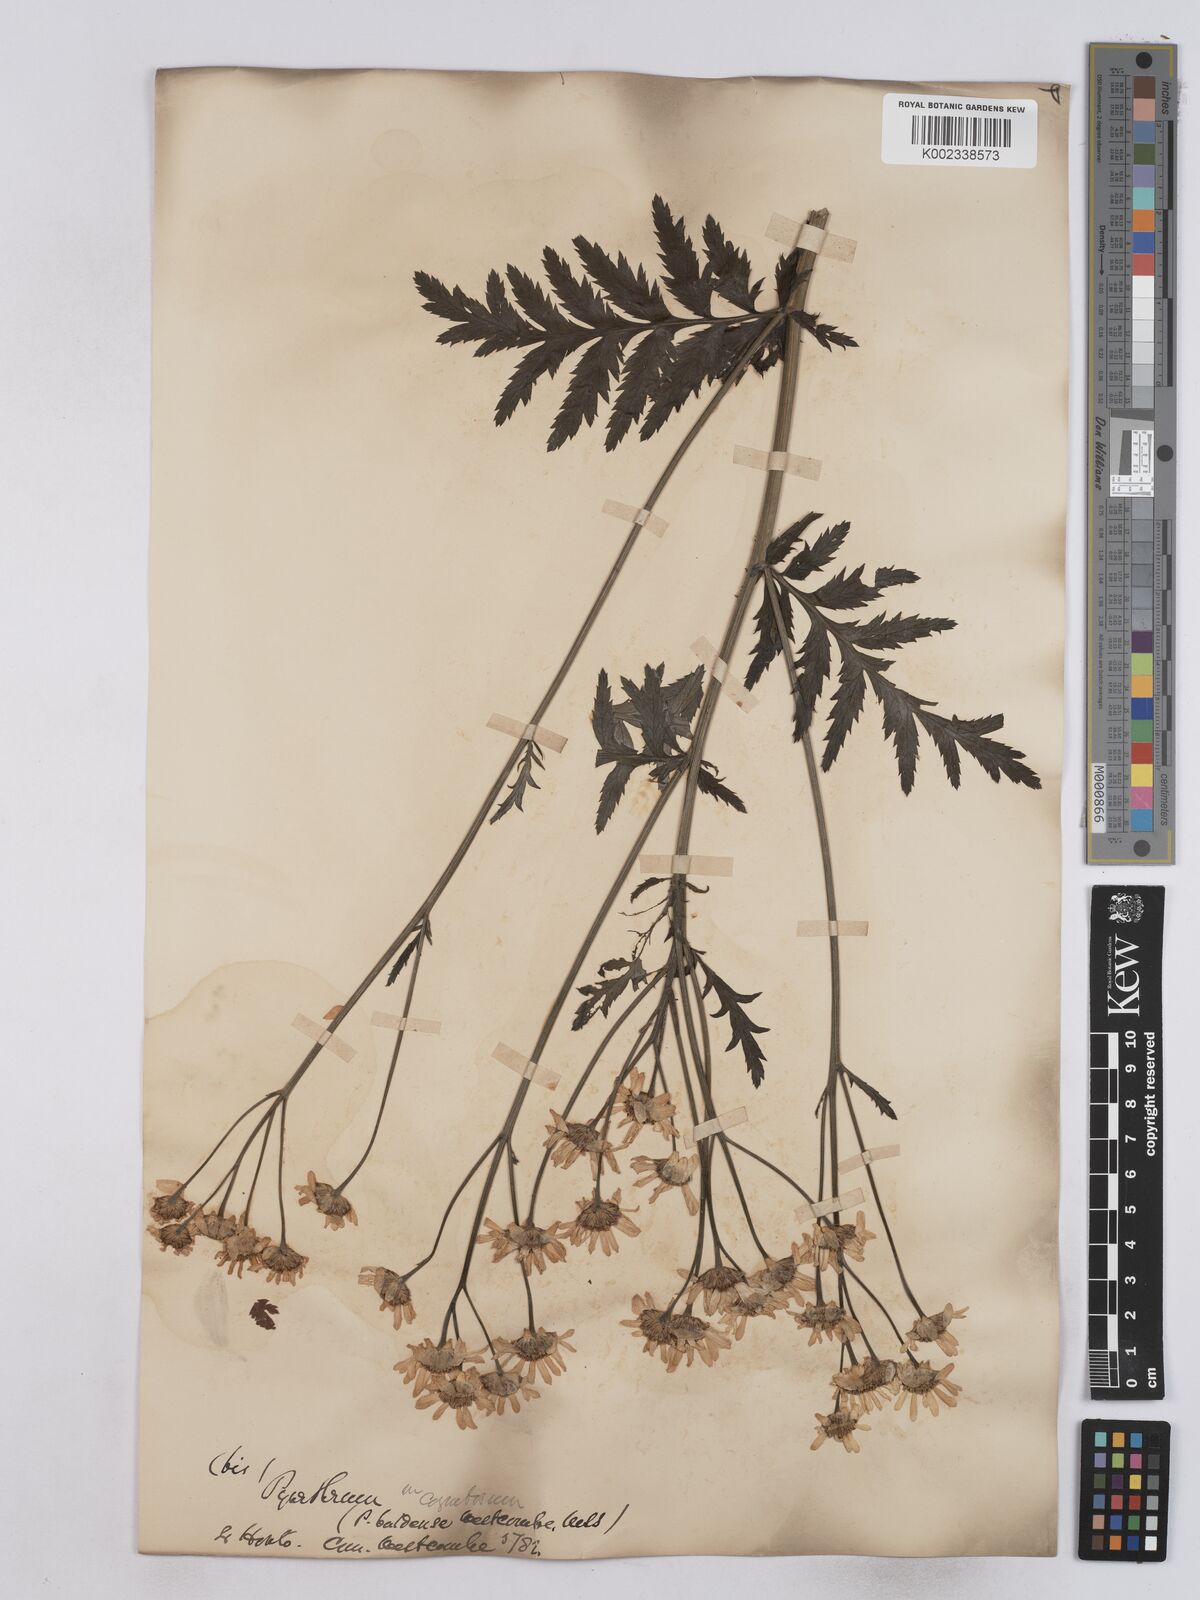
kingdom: Plantae
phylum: Tracheophyta
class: Magnoliopsida
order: Asterales
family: Asteraceae
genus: Tanacetum
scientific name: Tanacetum corymbosum
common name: Scentless feverfew
